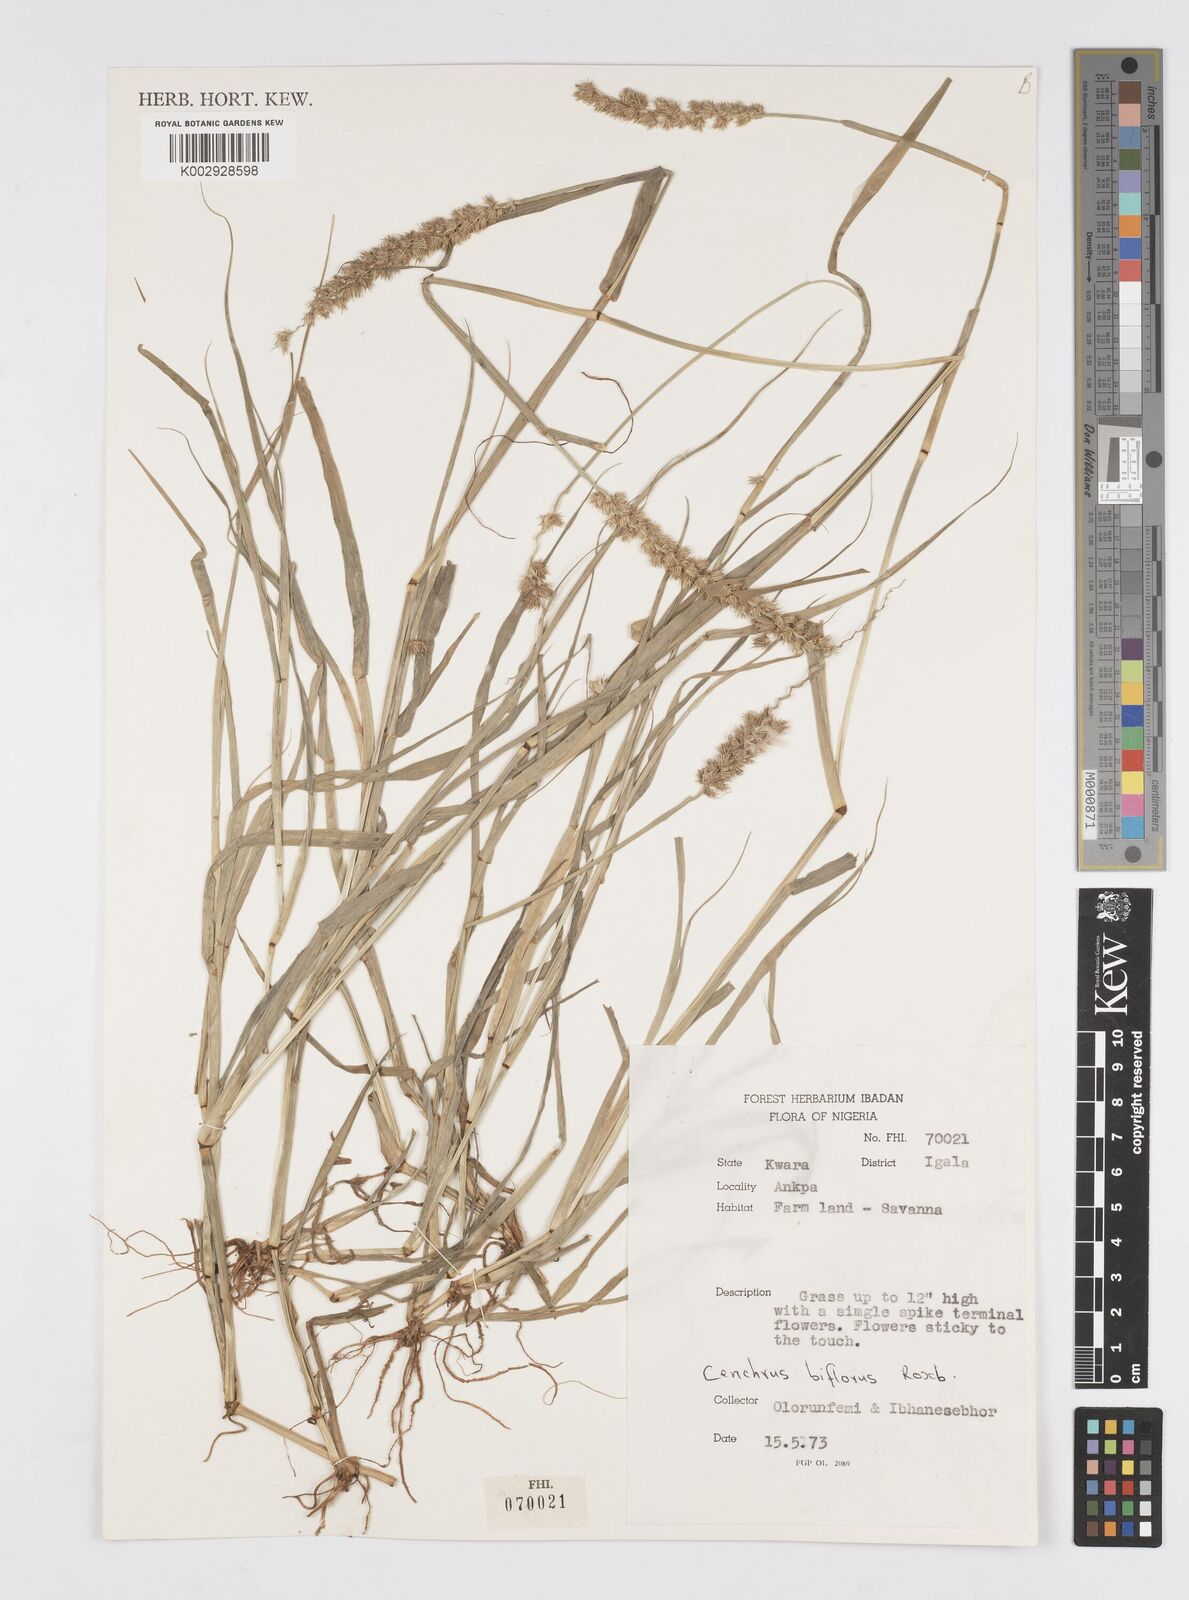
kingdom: Plantae
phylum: Tracheophyta
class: Liliopsida
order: Poales
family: Poaceae
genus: Cenchrus
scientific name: Cenchrus biflorus
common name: Indian sandbur
